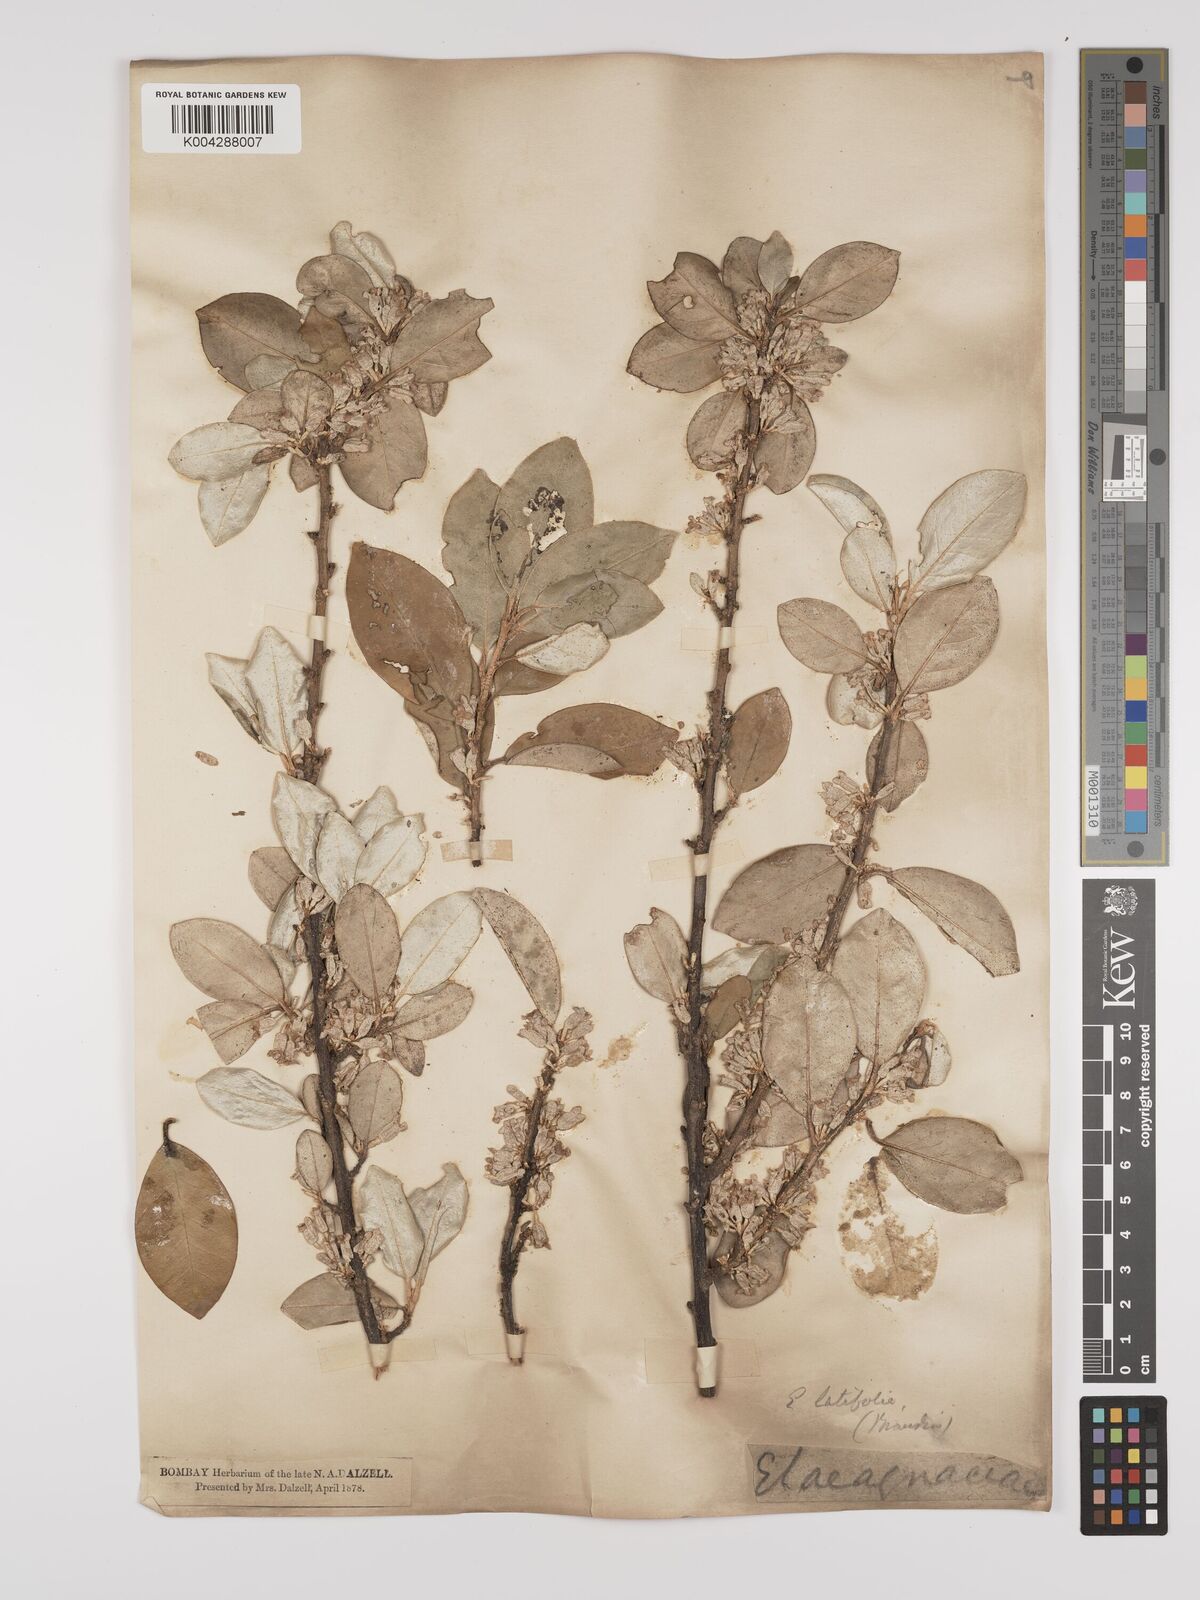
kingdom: Plantae
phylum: Tracheophyta
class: Magnoliopsida
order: Rosales
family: Elaeagnaceae
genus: Elaeagnus
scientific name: Elaeagnus latifolia
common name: Oleaster
